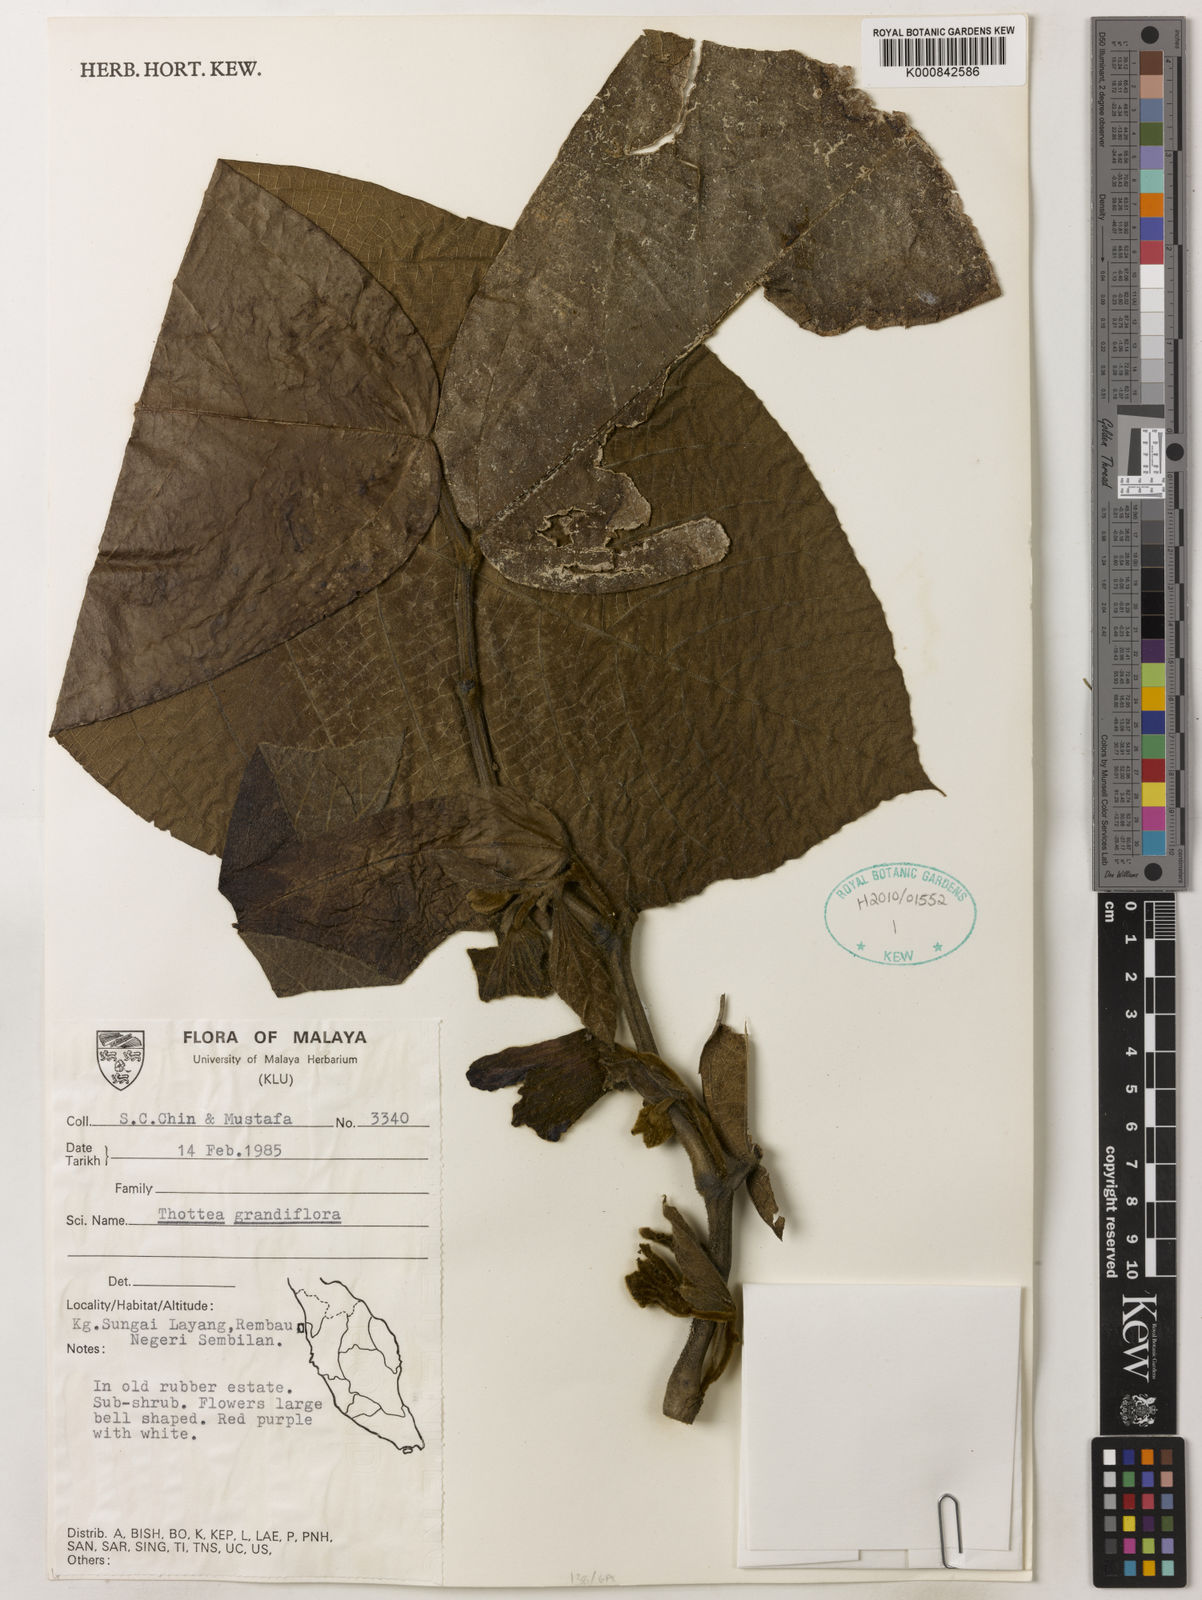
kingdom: Plantae
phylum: Tracheophyta
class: Magnoliopsida
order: Piperales
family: Aristolochiaceae
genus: Thottea
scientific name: Thottea grandiflora
